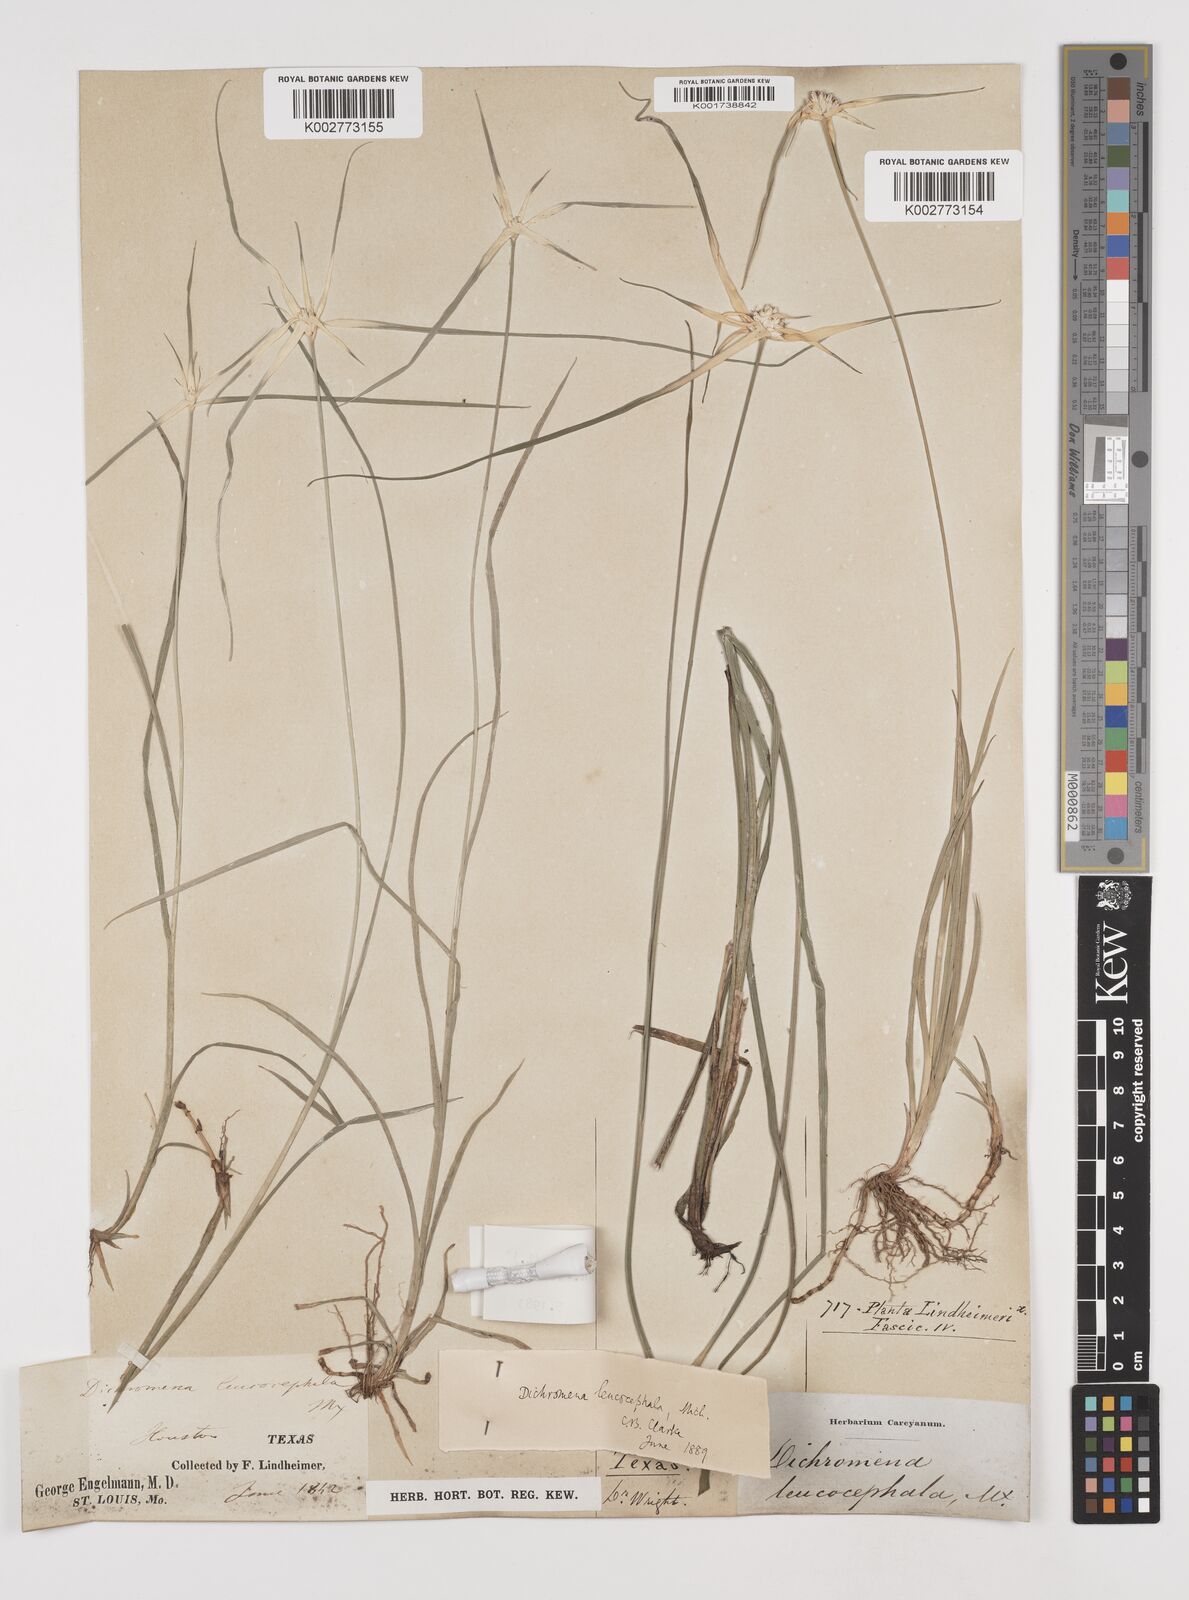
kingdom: Plantae
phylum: Tracheophyta
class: Liliopsida
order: Poales
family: Cyperaceae
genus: Rhynchospora
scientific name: Rhynchospora colorata
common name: Star sedge
